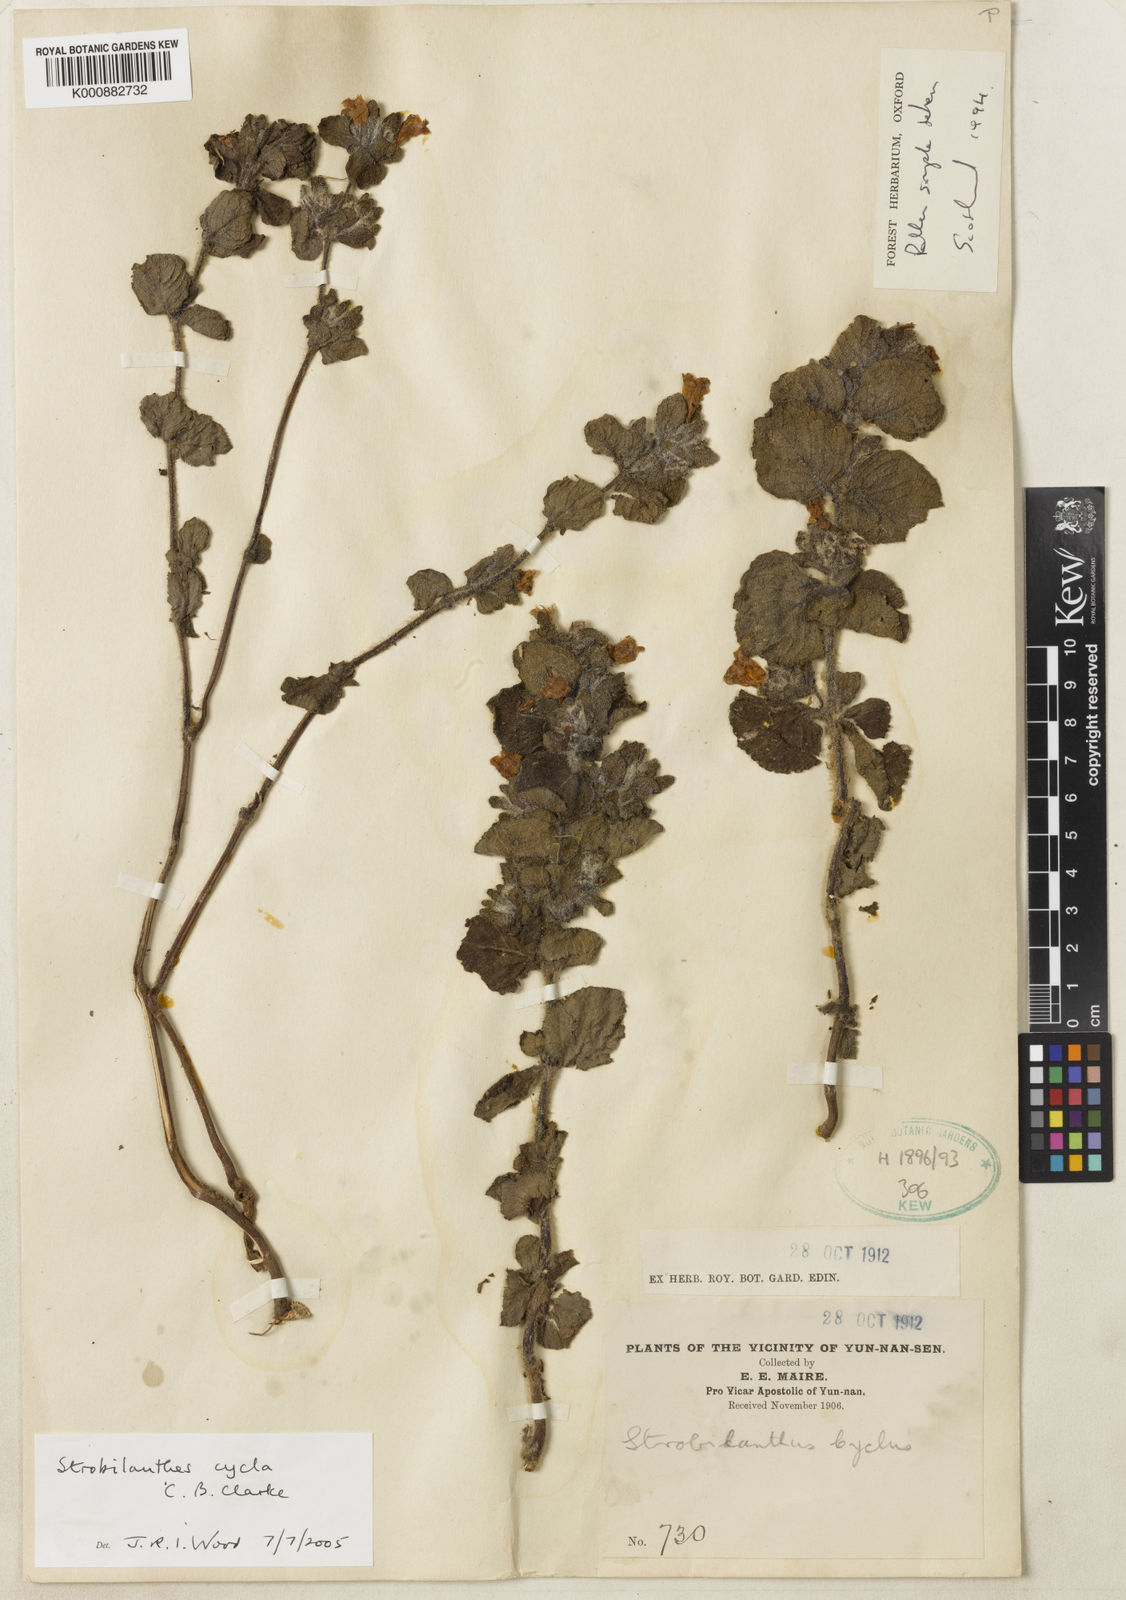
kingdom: Plantae
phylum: Tracheophyta
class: Magnoliopsida
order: Lamiales
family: Acanthaceae
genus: Strobilanthes
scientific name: Strobilanthes
